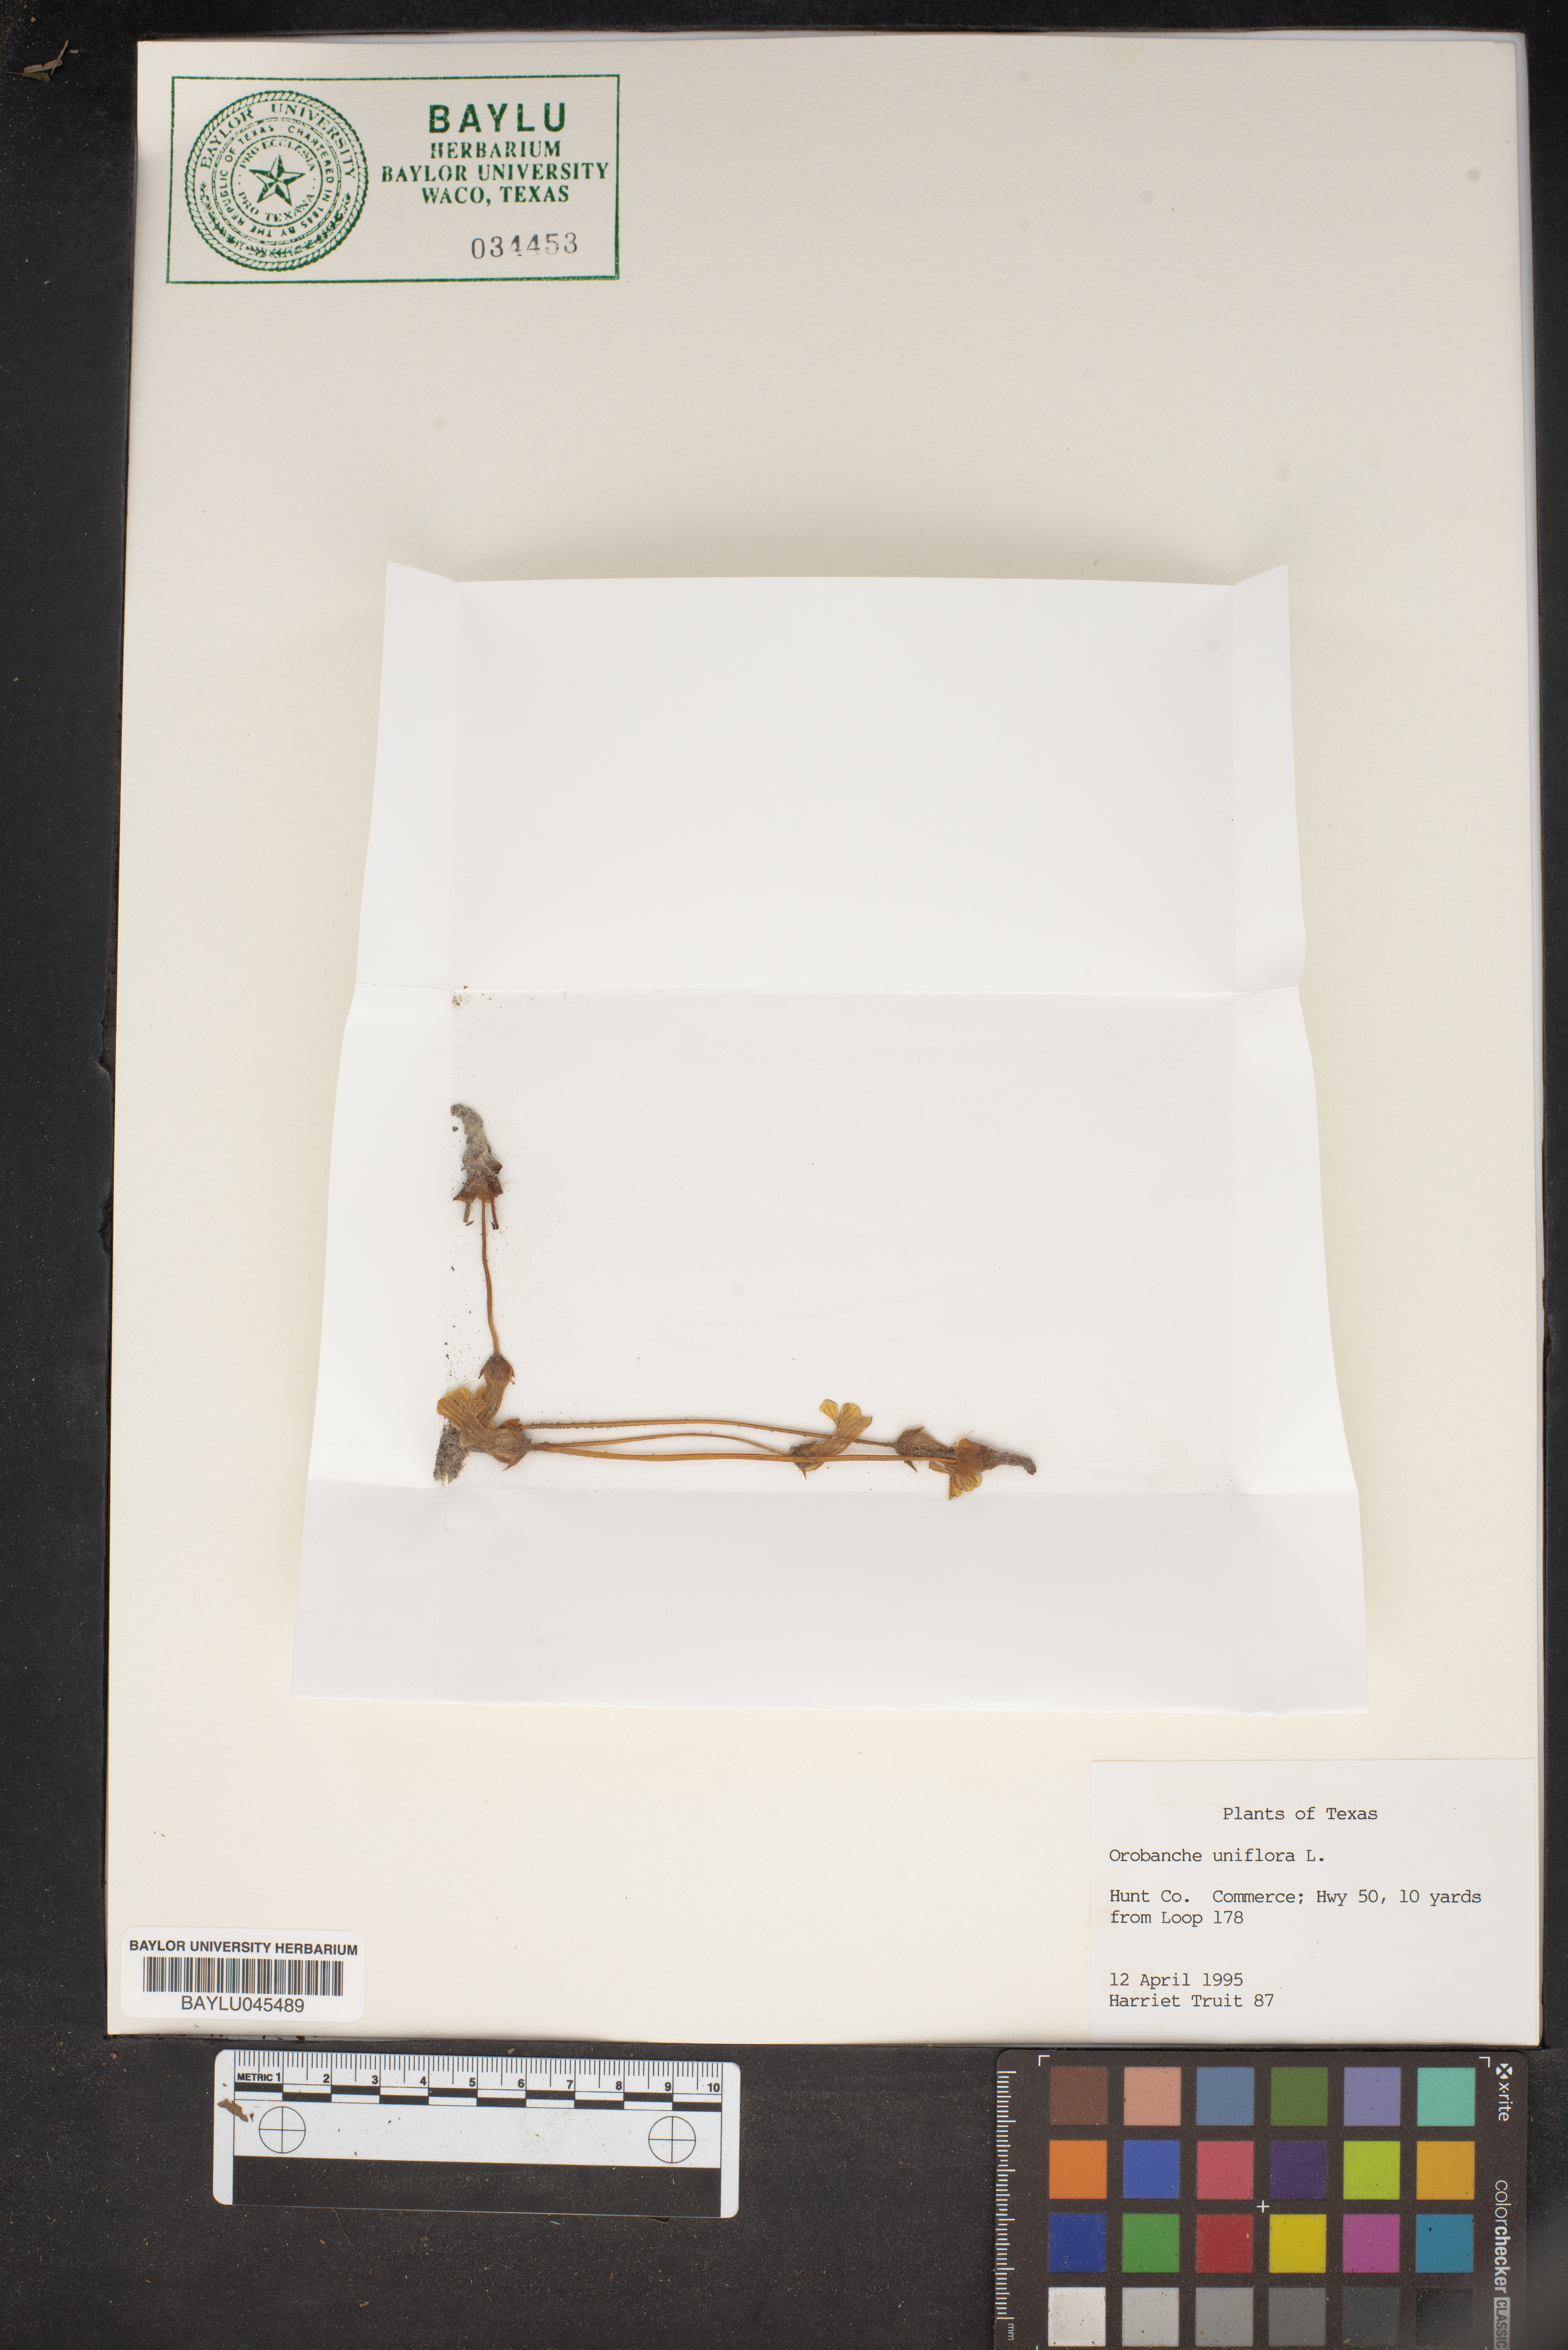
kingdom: Plantae
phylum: Tracheophyta
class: Magnoliopsida
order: Lamiales
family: Orobanchaceae
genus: Aphyllon
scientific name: Aphyllon uniflorum
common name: One-flowered broomrape
